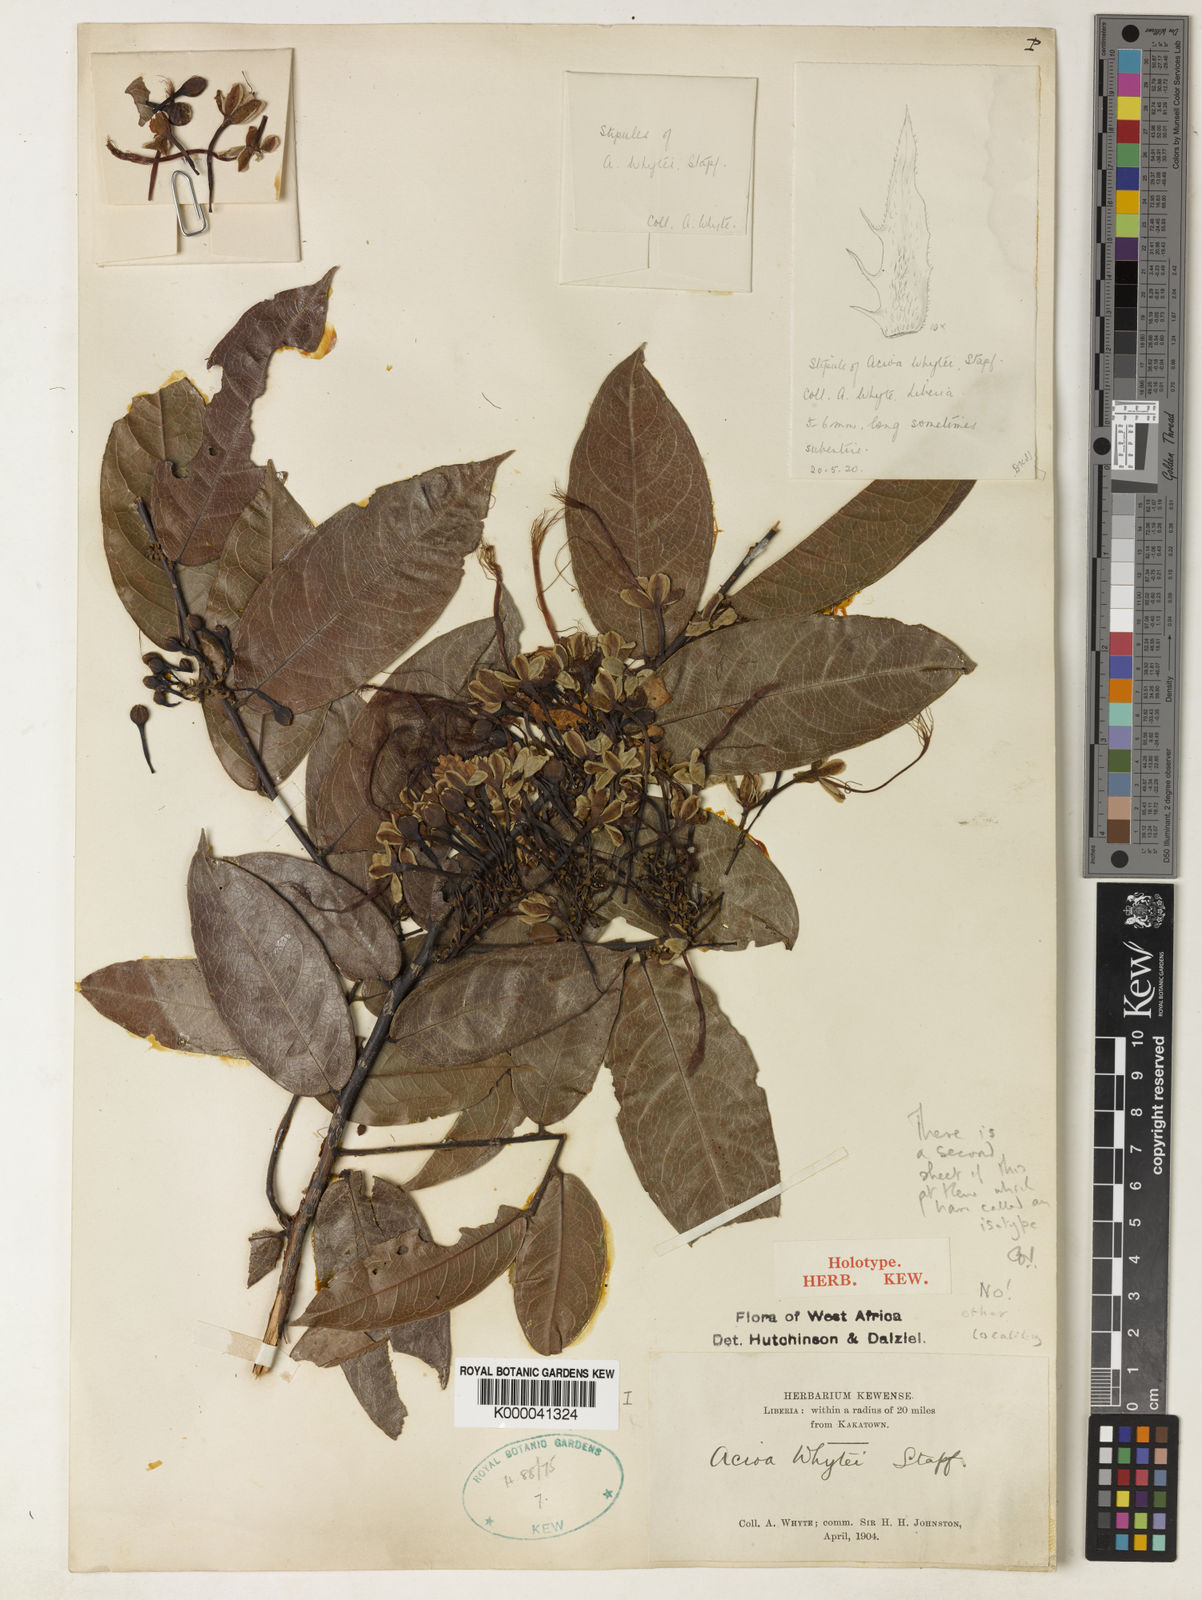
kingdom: Plantae
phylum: Tracheophyta
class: Magnoliopsida
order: Malpighiales
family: Chrysobalanaceae
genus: Dactyladenia
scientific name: Dactyladenia whytei
